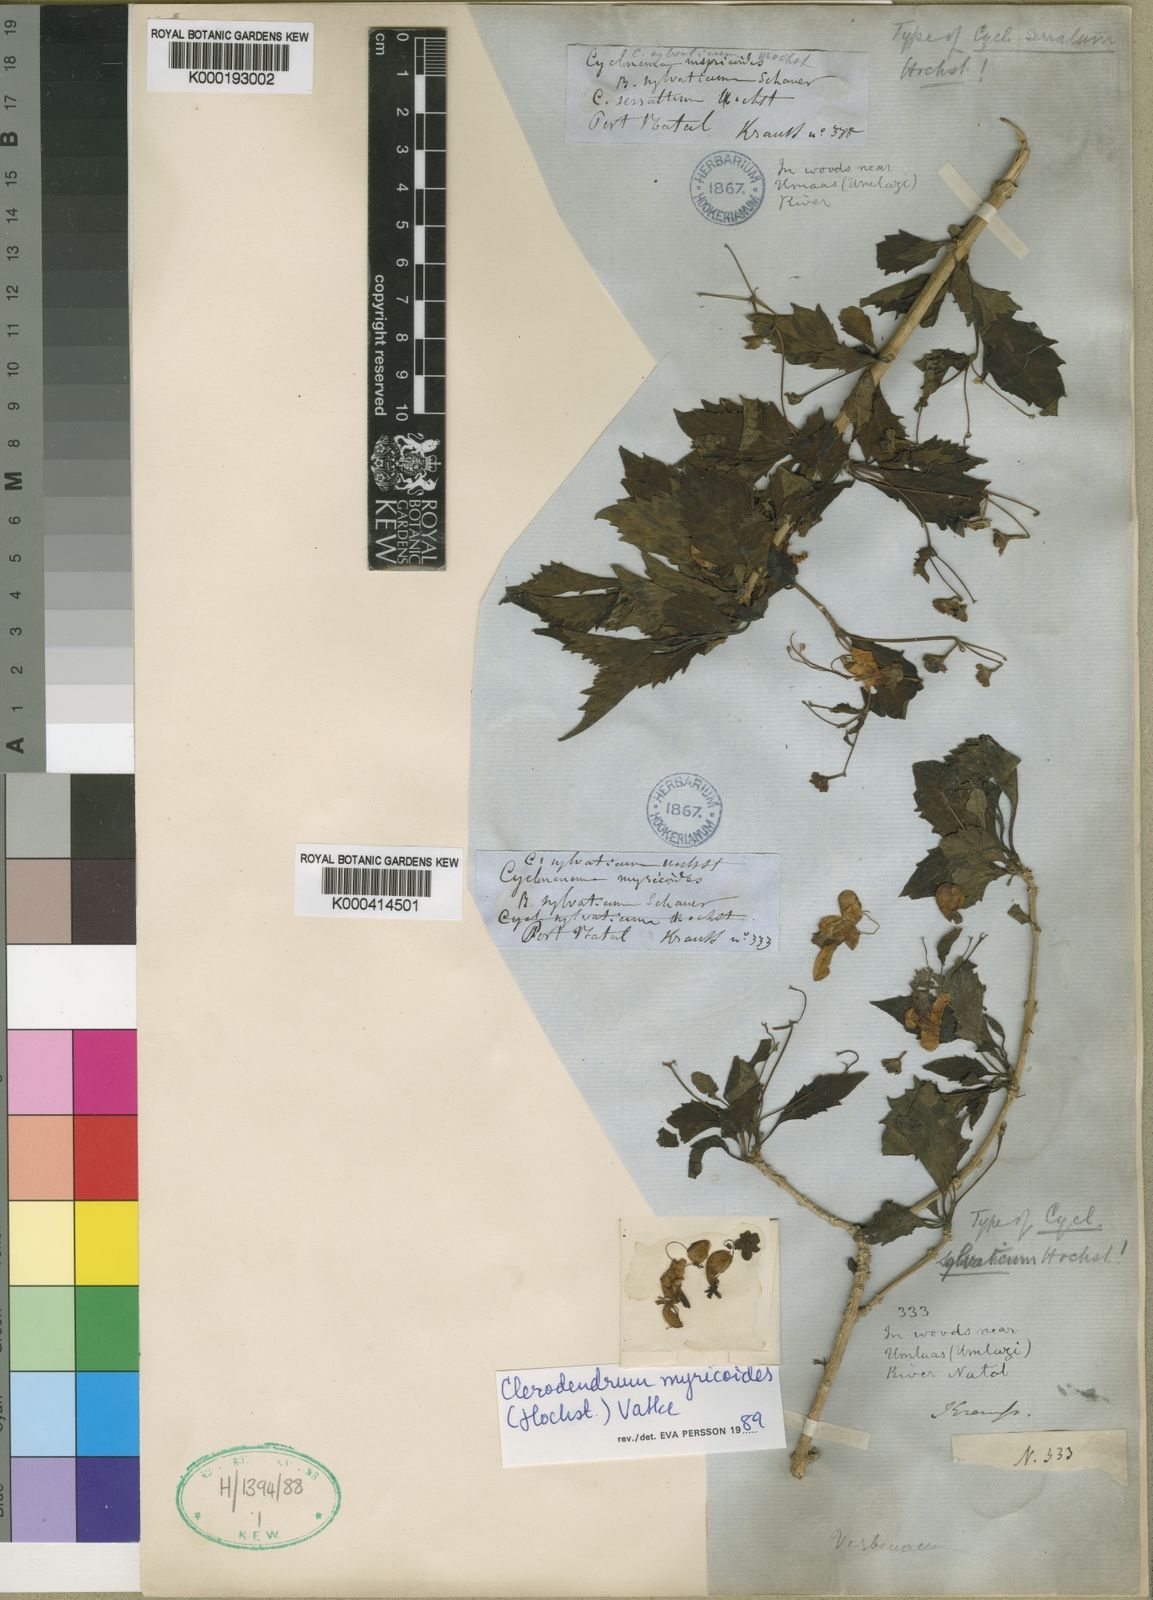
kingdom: Plantae
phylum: Tracheophyta
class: Magnoliopsida
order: Lamiales
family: Lamiaceae
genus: Rotheca
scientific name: Rotheca myricoides
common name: Cats-whiskers
